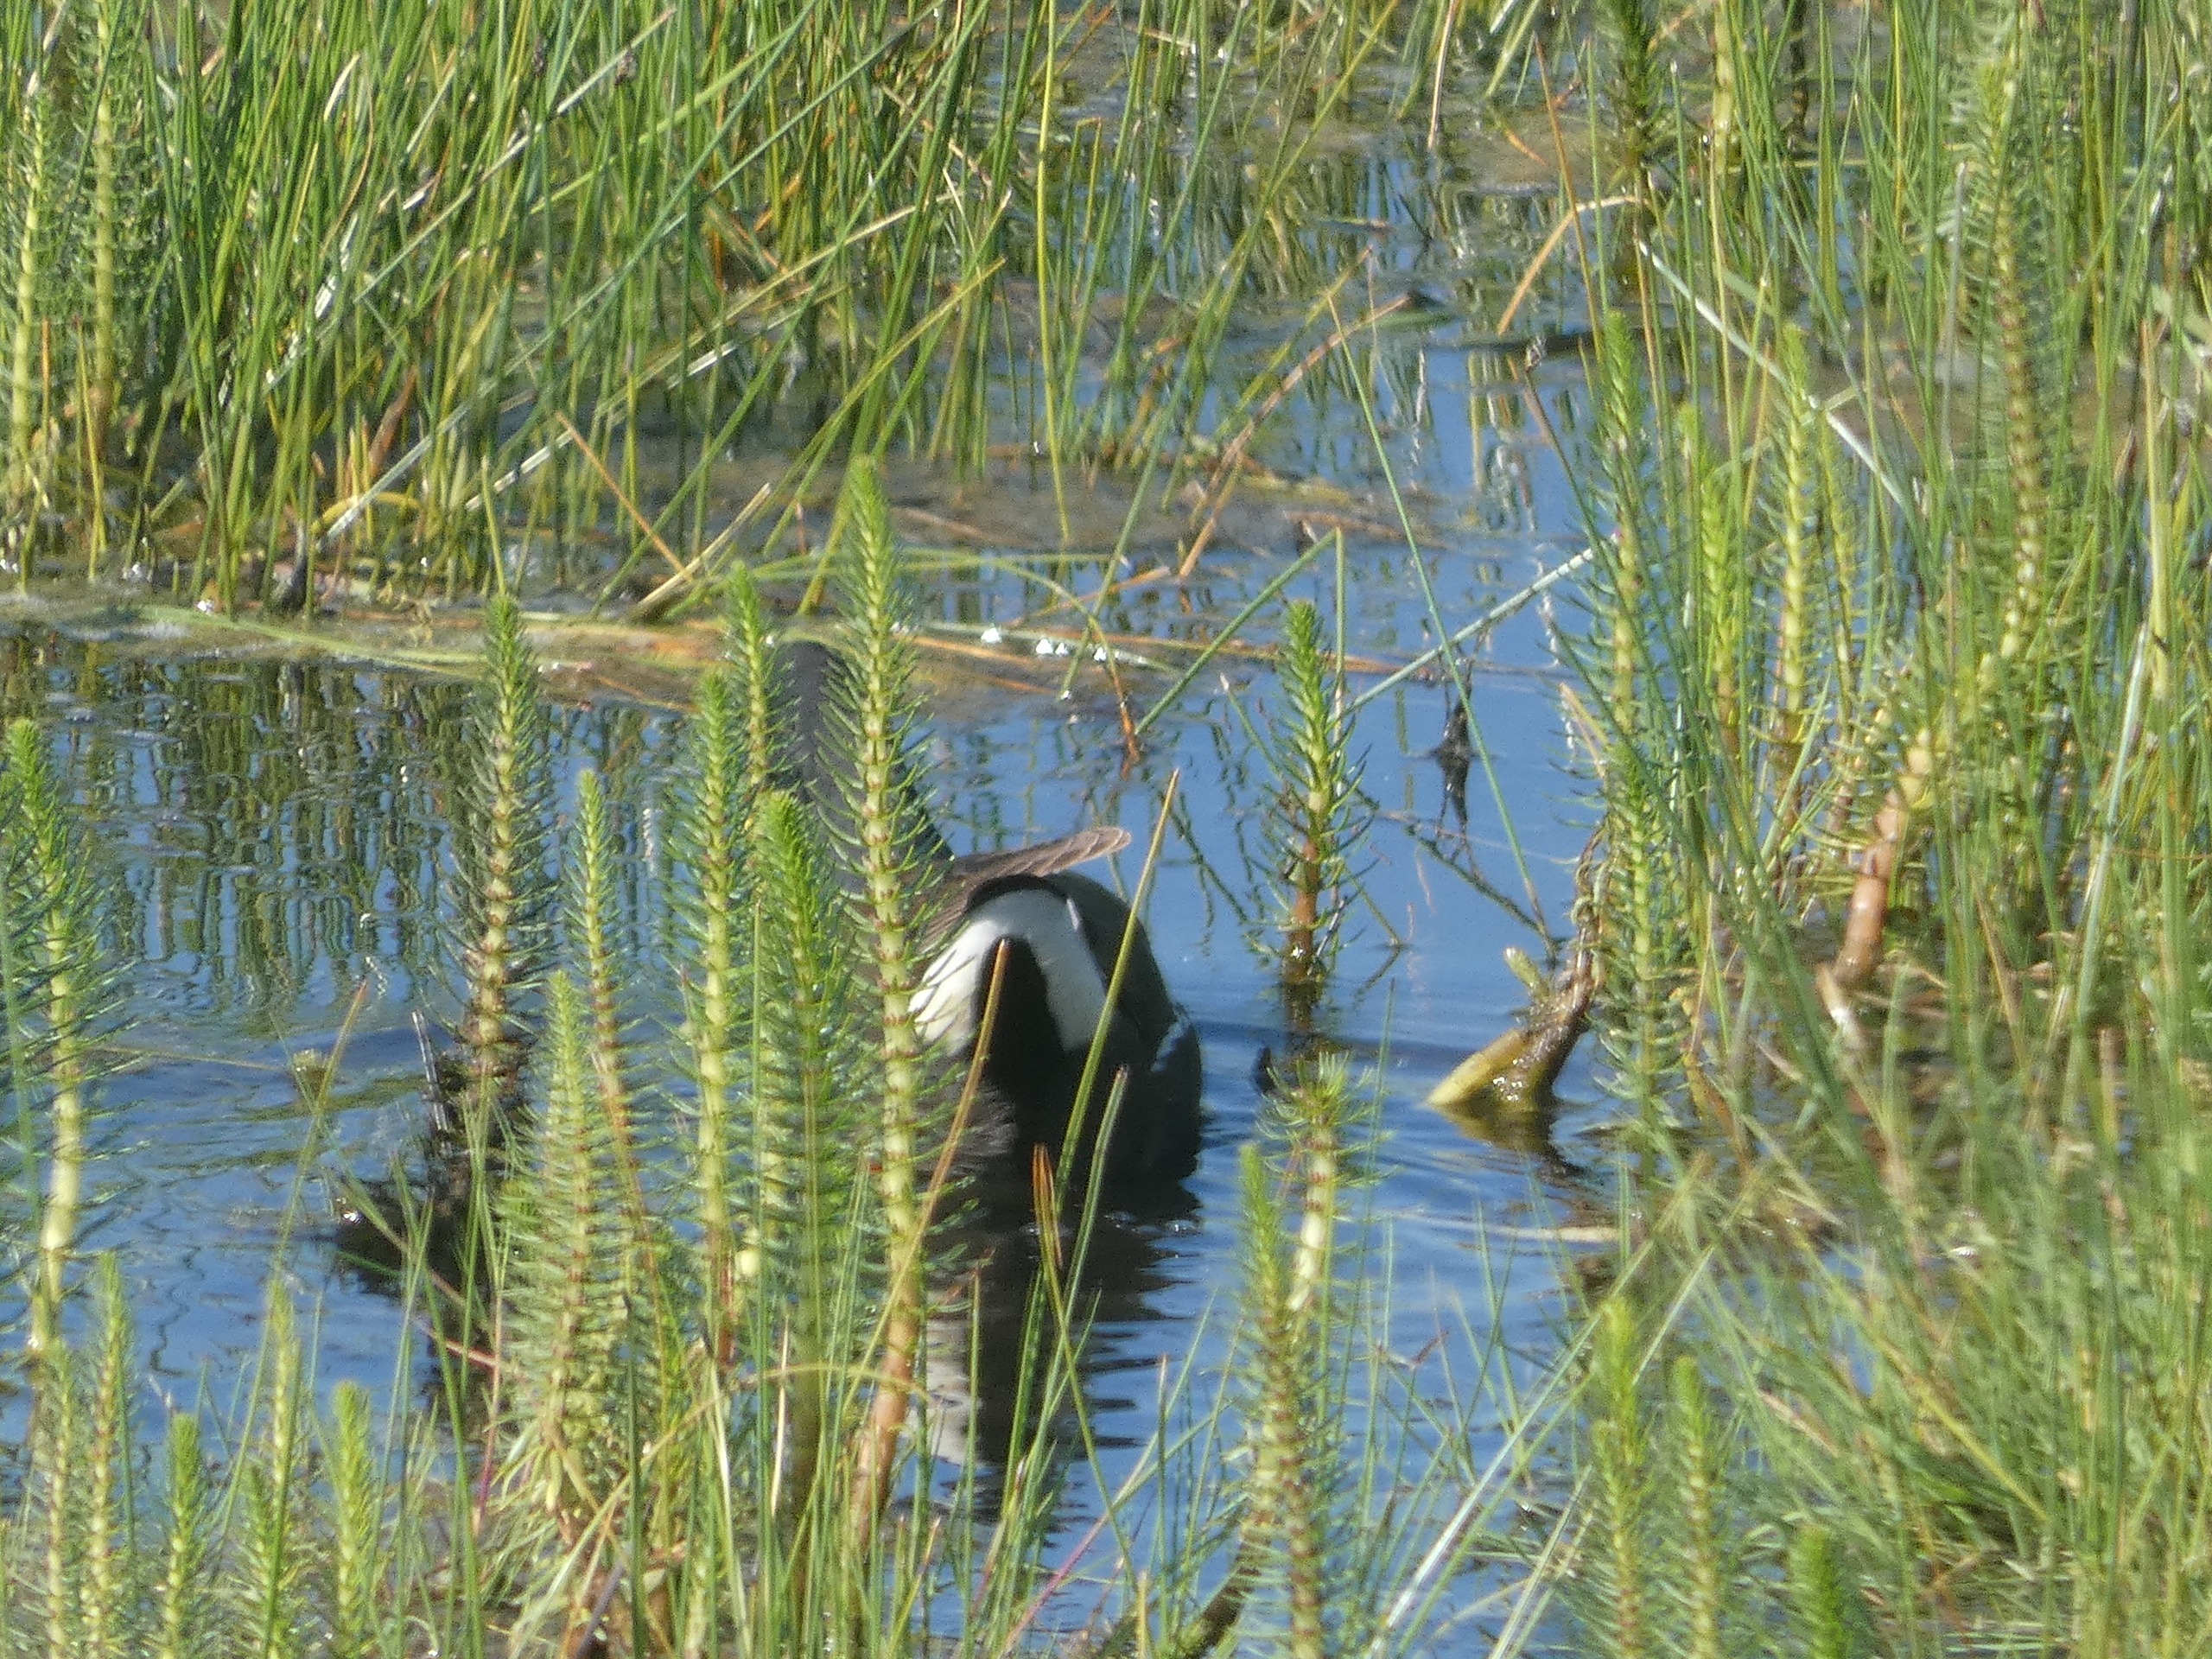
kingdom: Plantae
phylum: Tracheophyta
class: Magnoliopsida
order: Lamiales
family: Plantaginaceae
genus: Hippuris
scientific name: Hippuris vulgaris
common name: Vandspir
